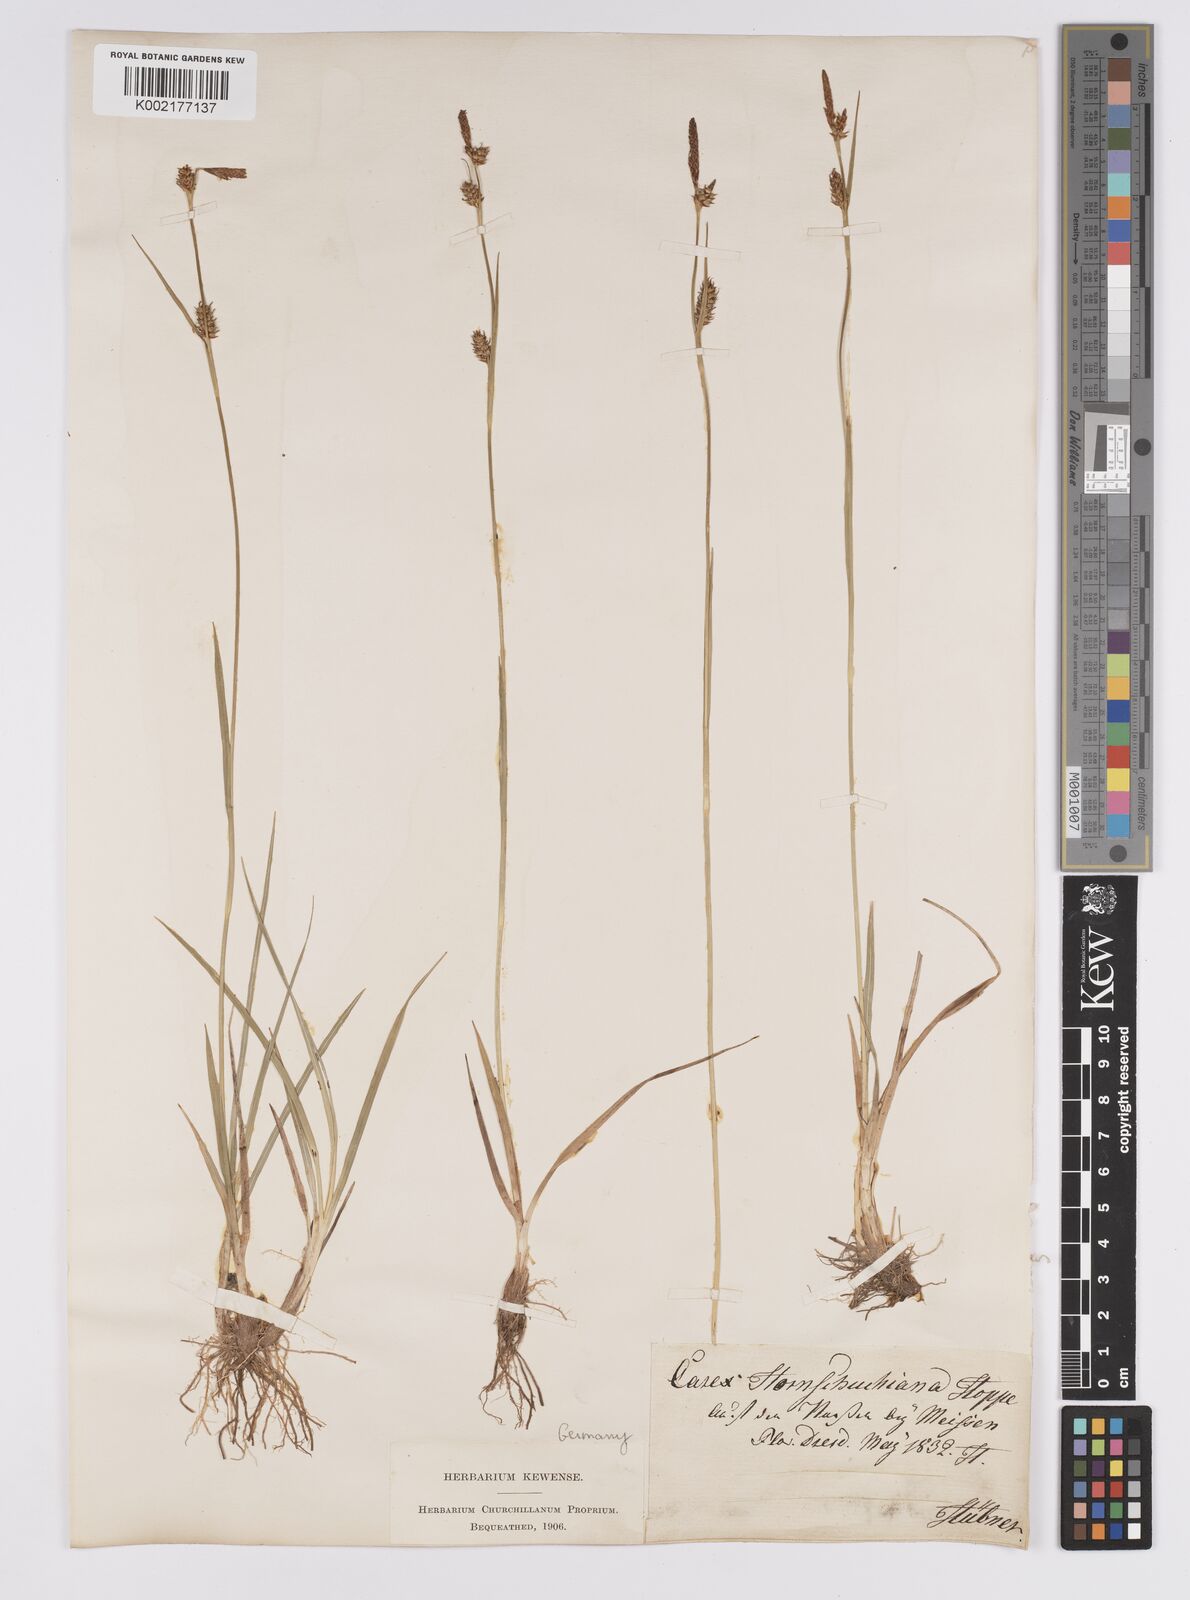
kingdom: Plantae
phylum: Tracheophyta
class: Liliopsida
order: Poales
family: Cyperaceae
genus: Carex
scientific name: Carex hostiana
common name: Tawny sedge
